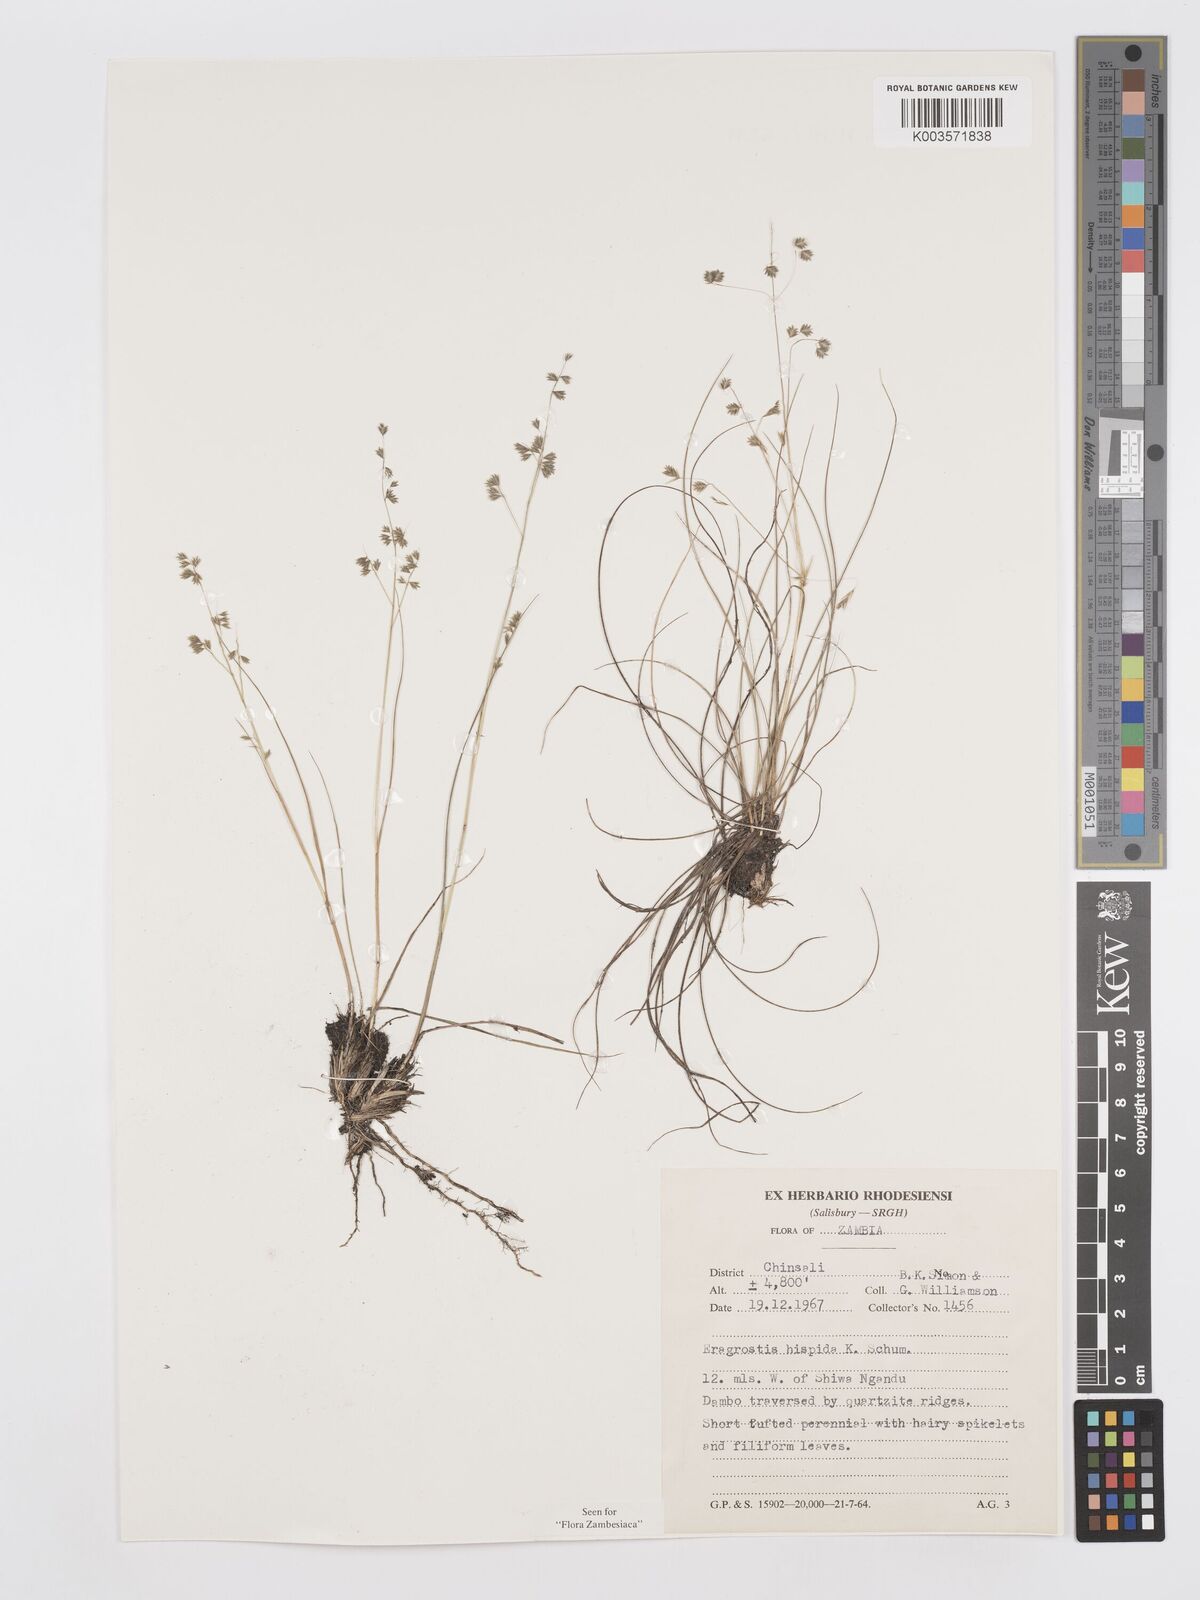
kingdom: Plantae
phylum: Tracheophyta
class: Liliopsida
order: Poales
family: Poaceae
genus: Eragrostis
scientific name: Eragrostis hispida
